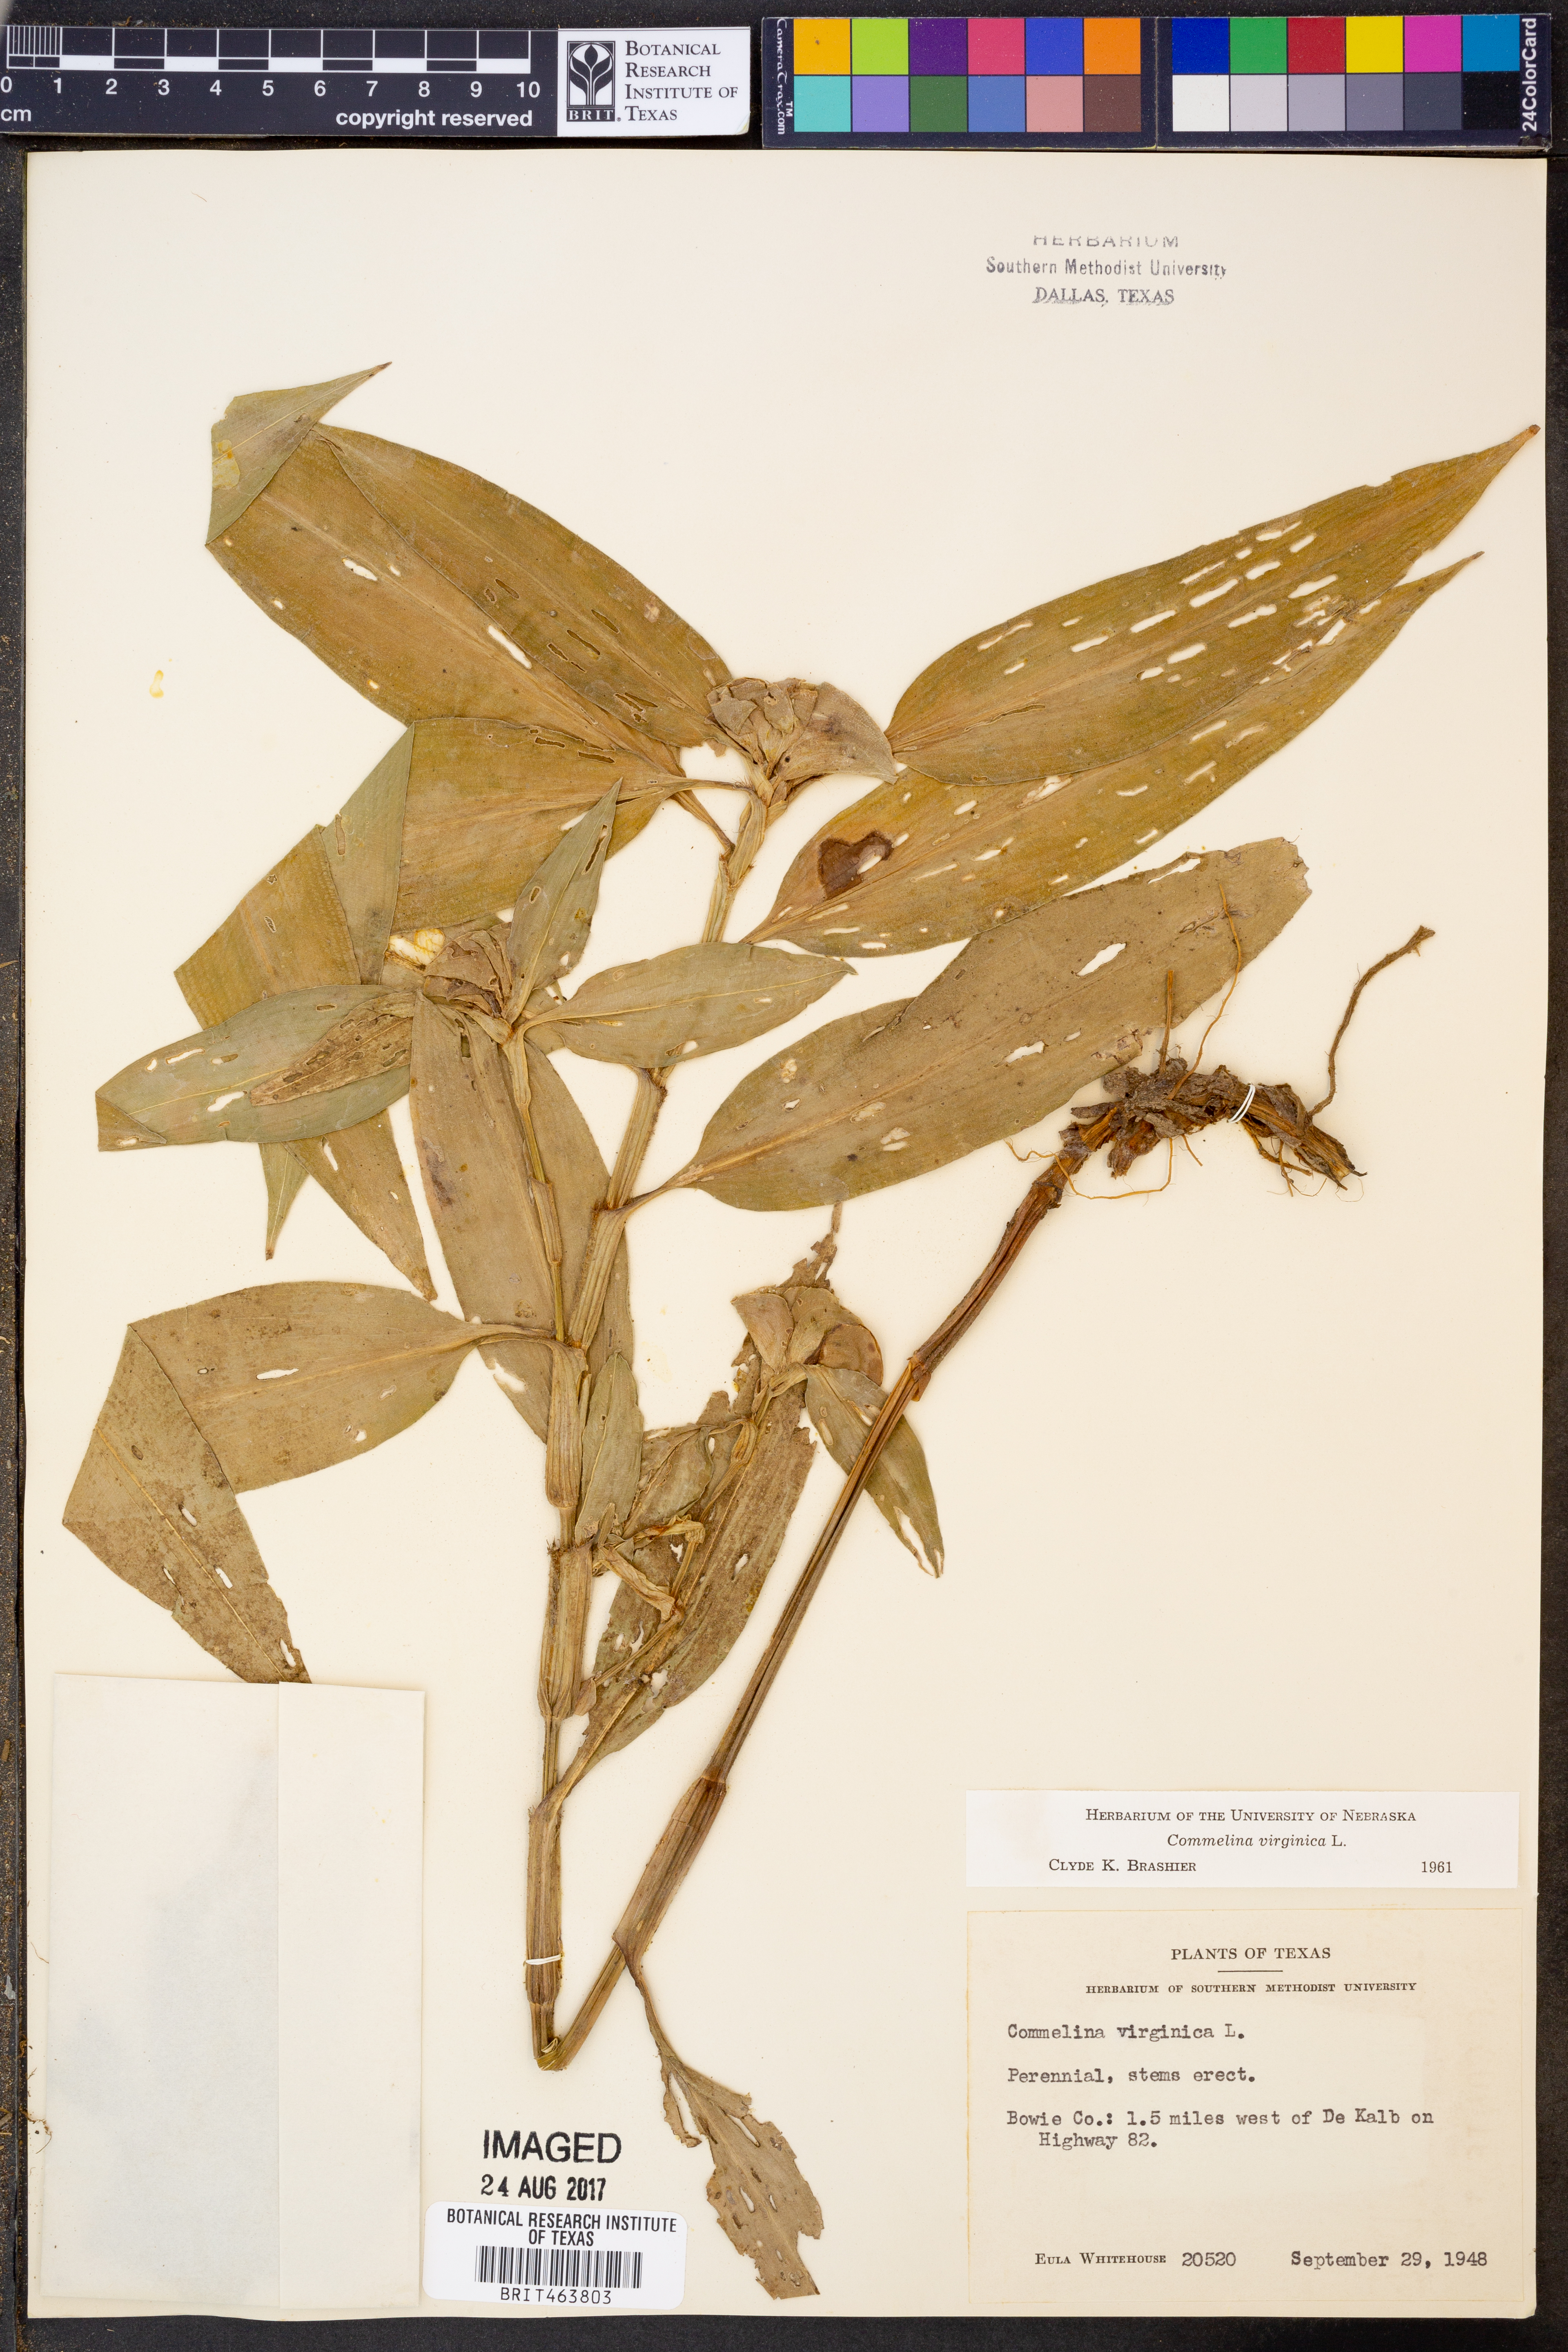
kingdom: Plantae
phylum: Tracheophyta
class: Liliopsida
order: Commelinales
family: Commelinaceae
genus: Commelina
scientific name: Commelina virginica
